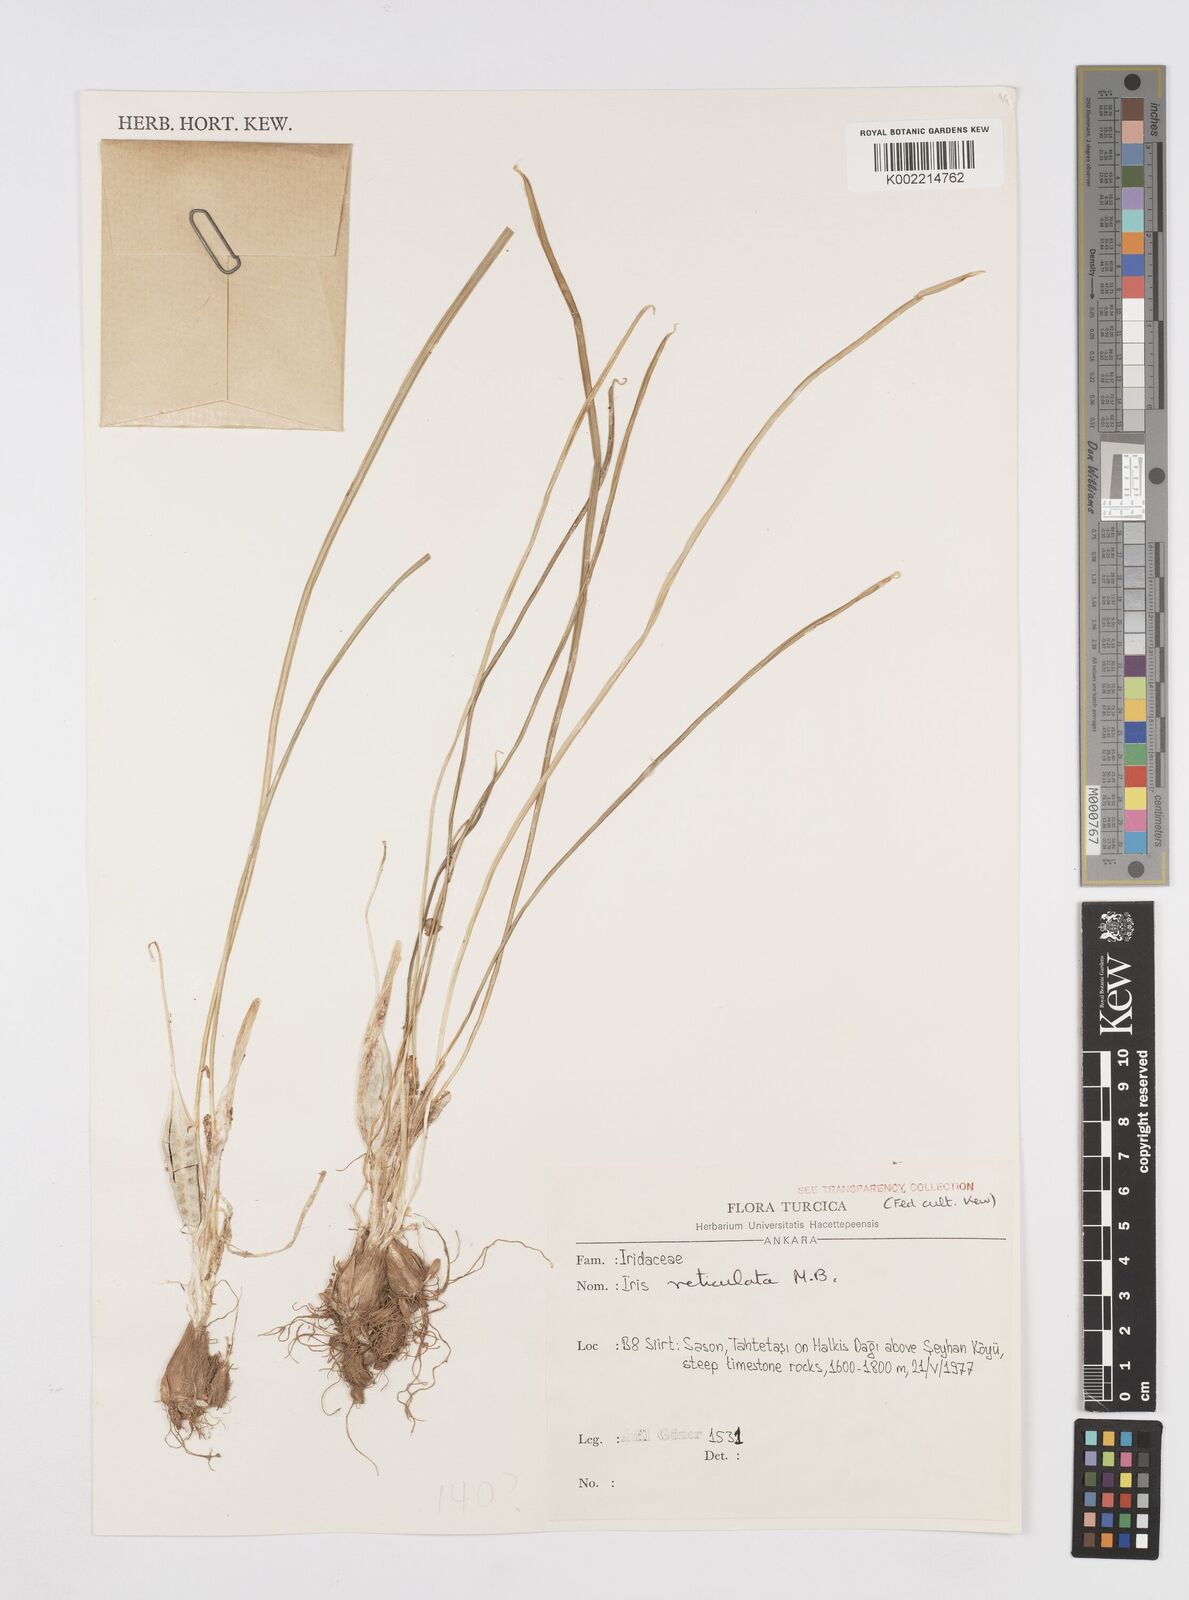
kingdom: Plantae
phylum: Tracheophyta
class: Liliopsida
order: Asparagales
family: Iridaceae
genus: Iris
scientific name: Iris reticulata
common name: Netted iris
